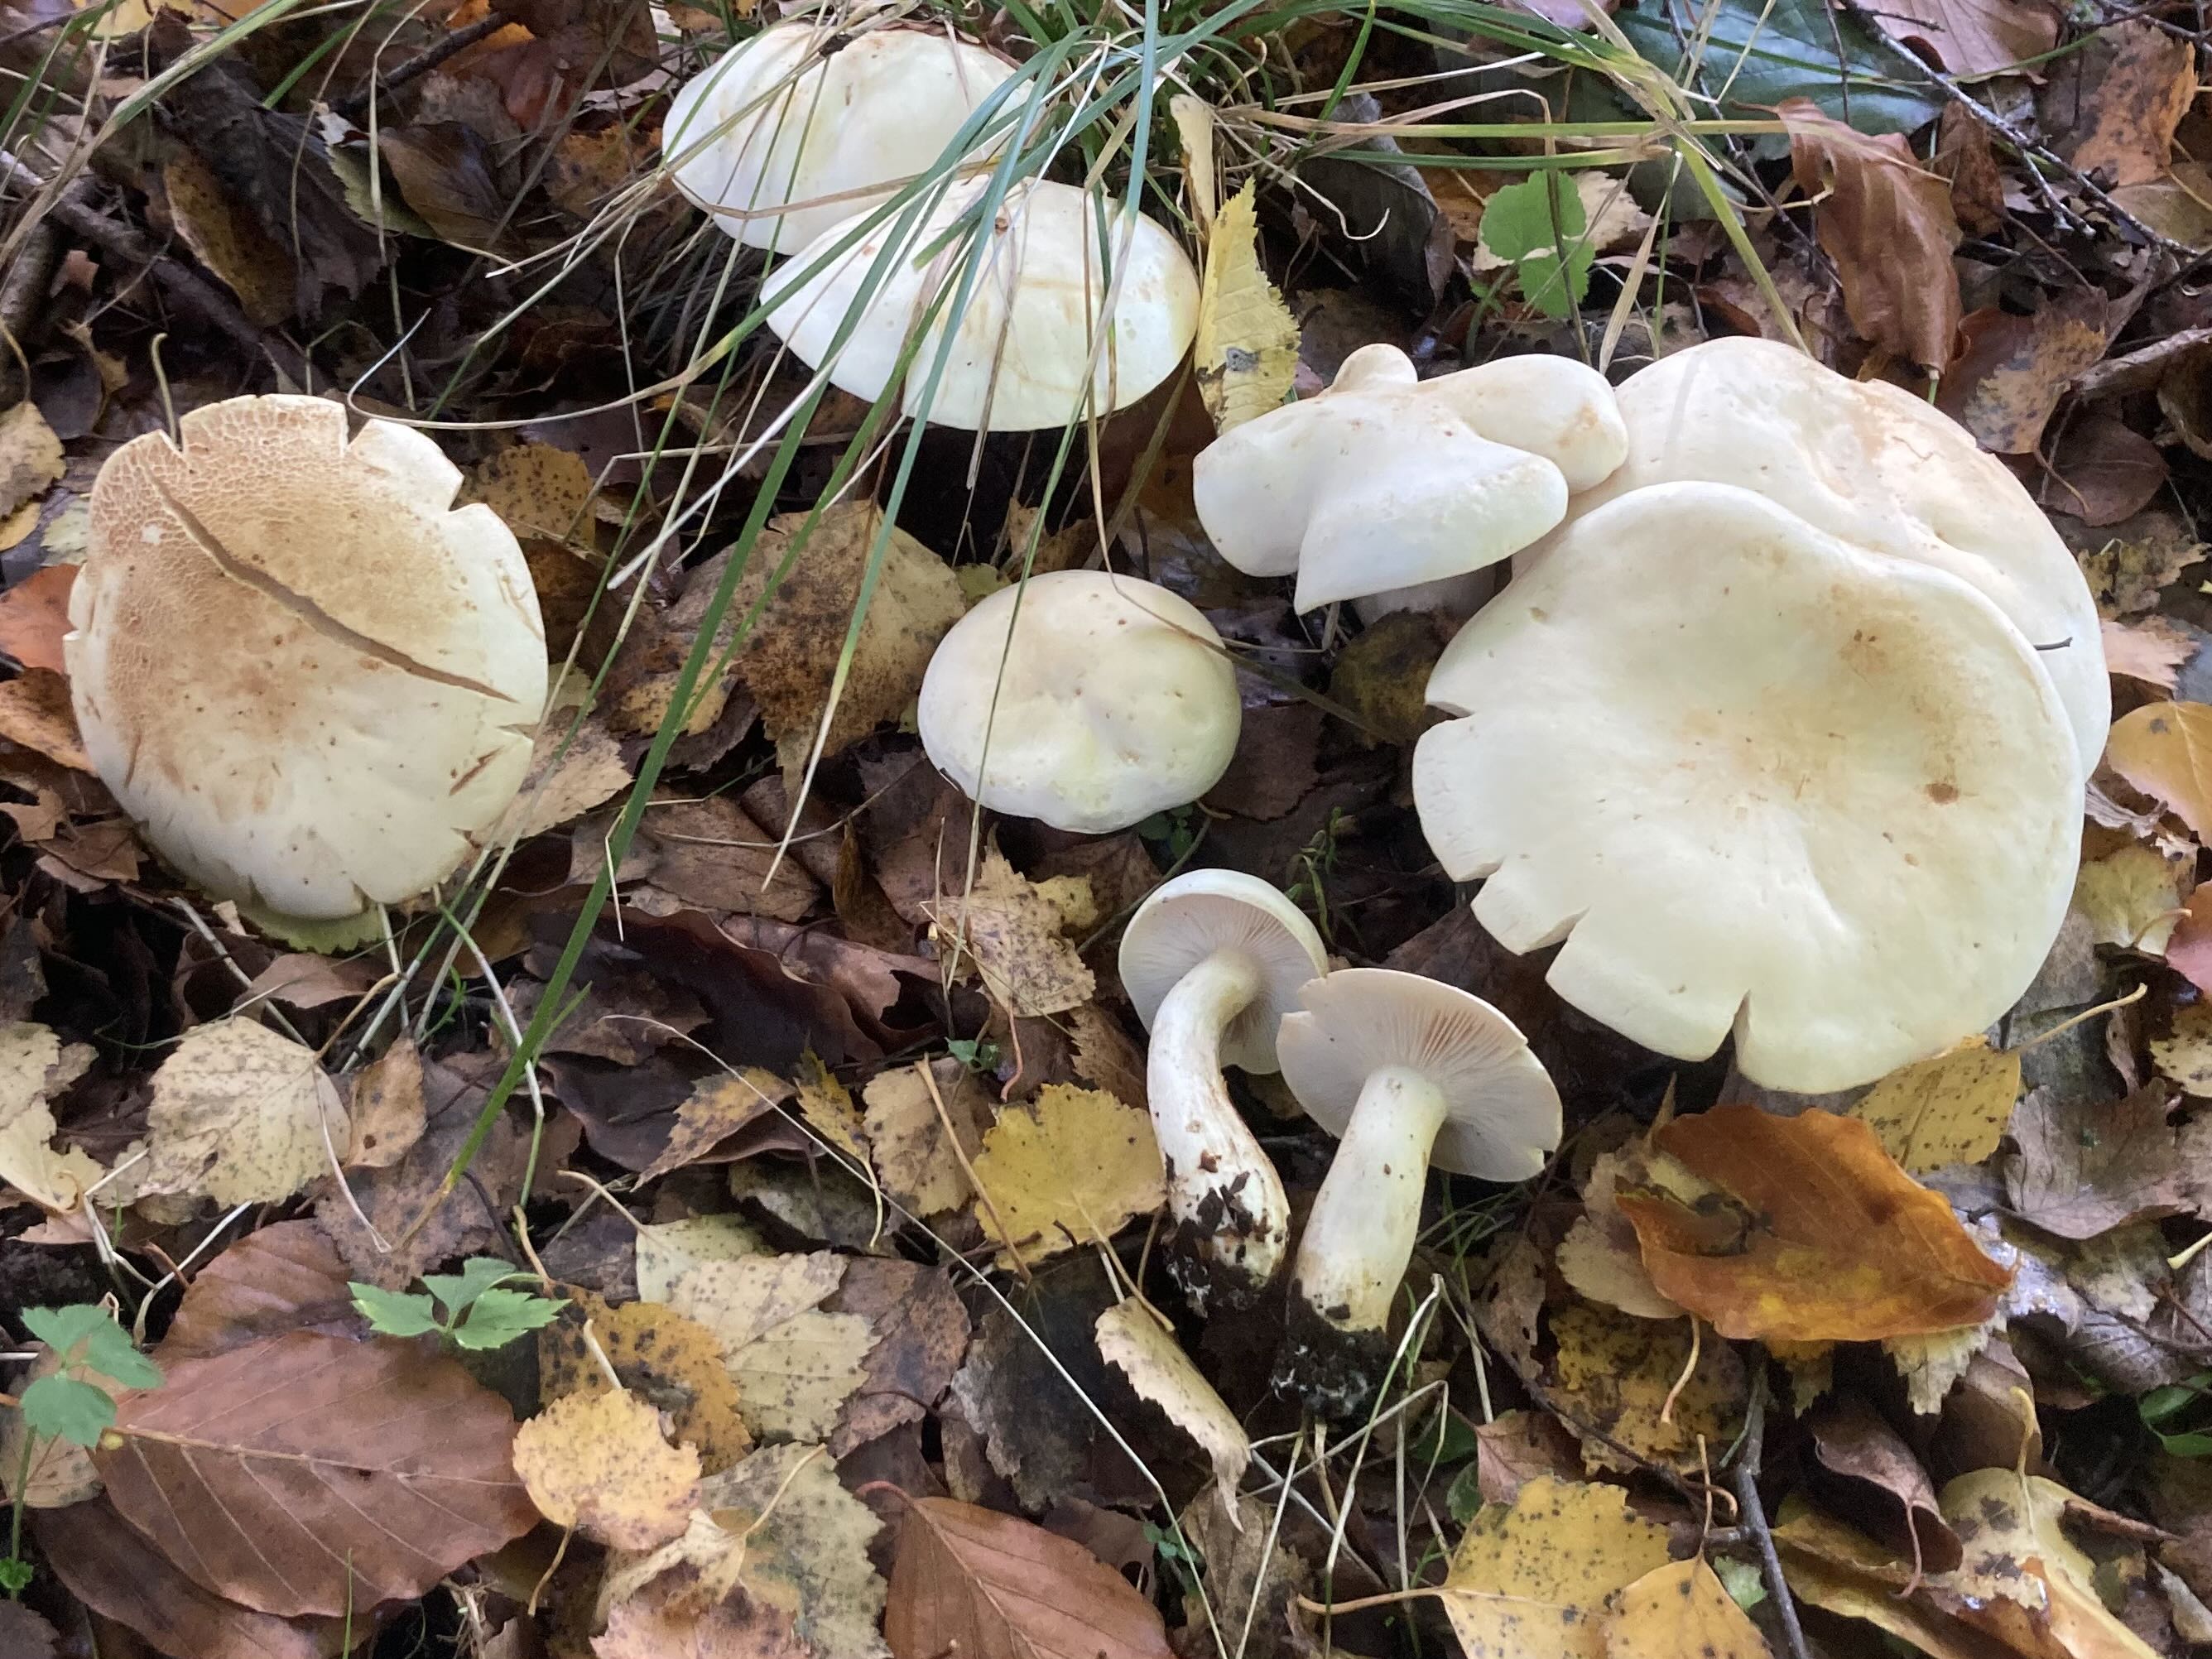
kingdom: Fungi
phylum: Basidiomycota
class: Agaricomycetes
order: Agaricales
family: Tricholomataceae
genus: Tricholoma
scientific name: Tricholoma stiparophyllum
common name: hvid ridderhat
